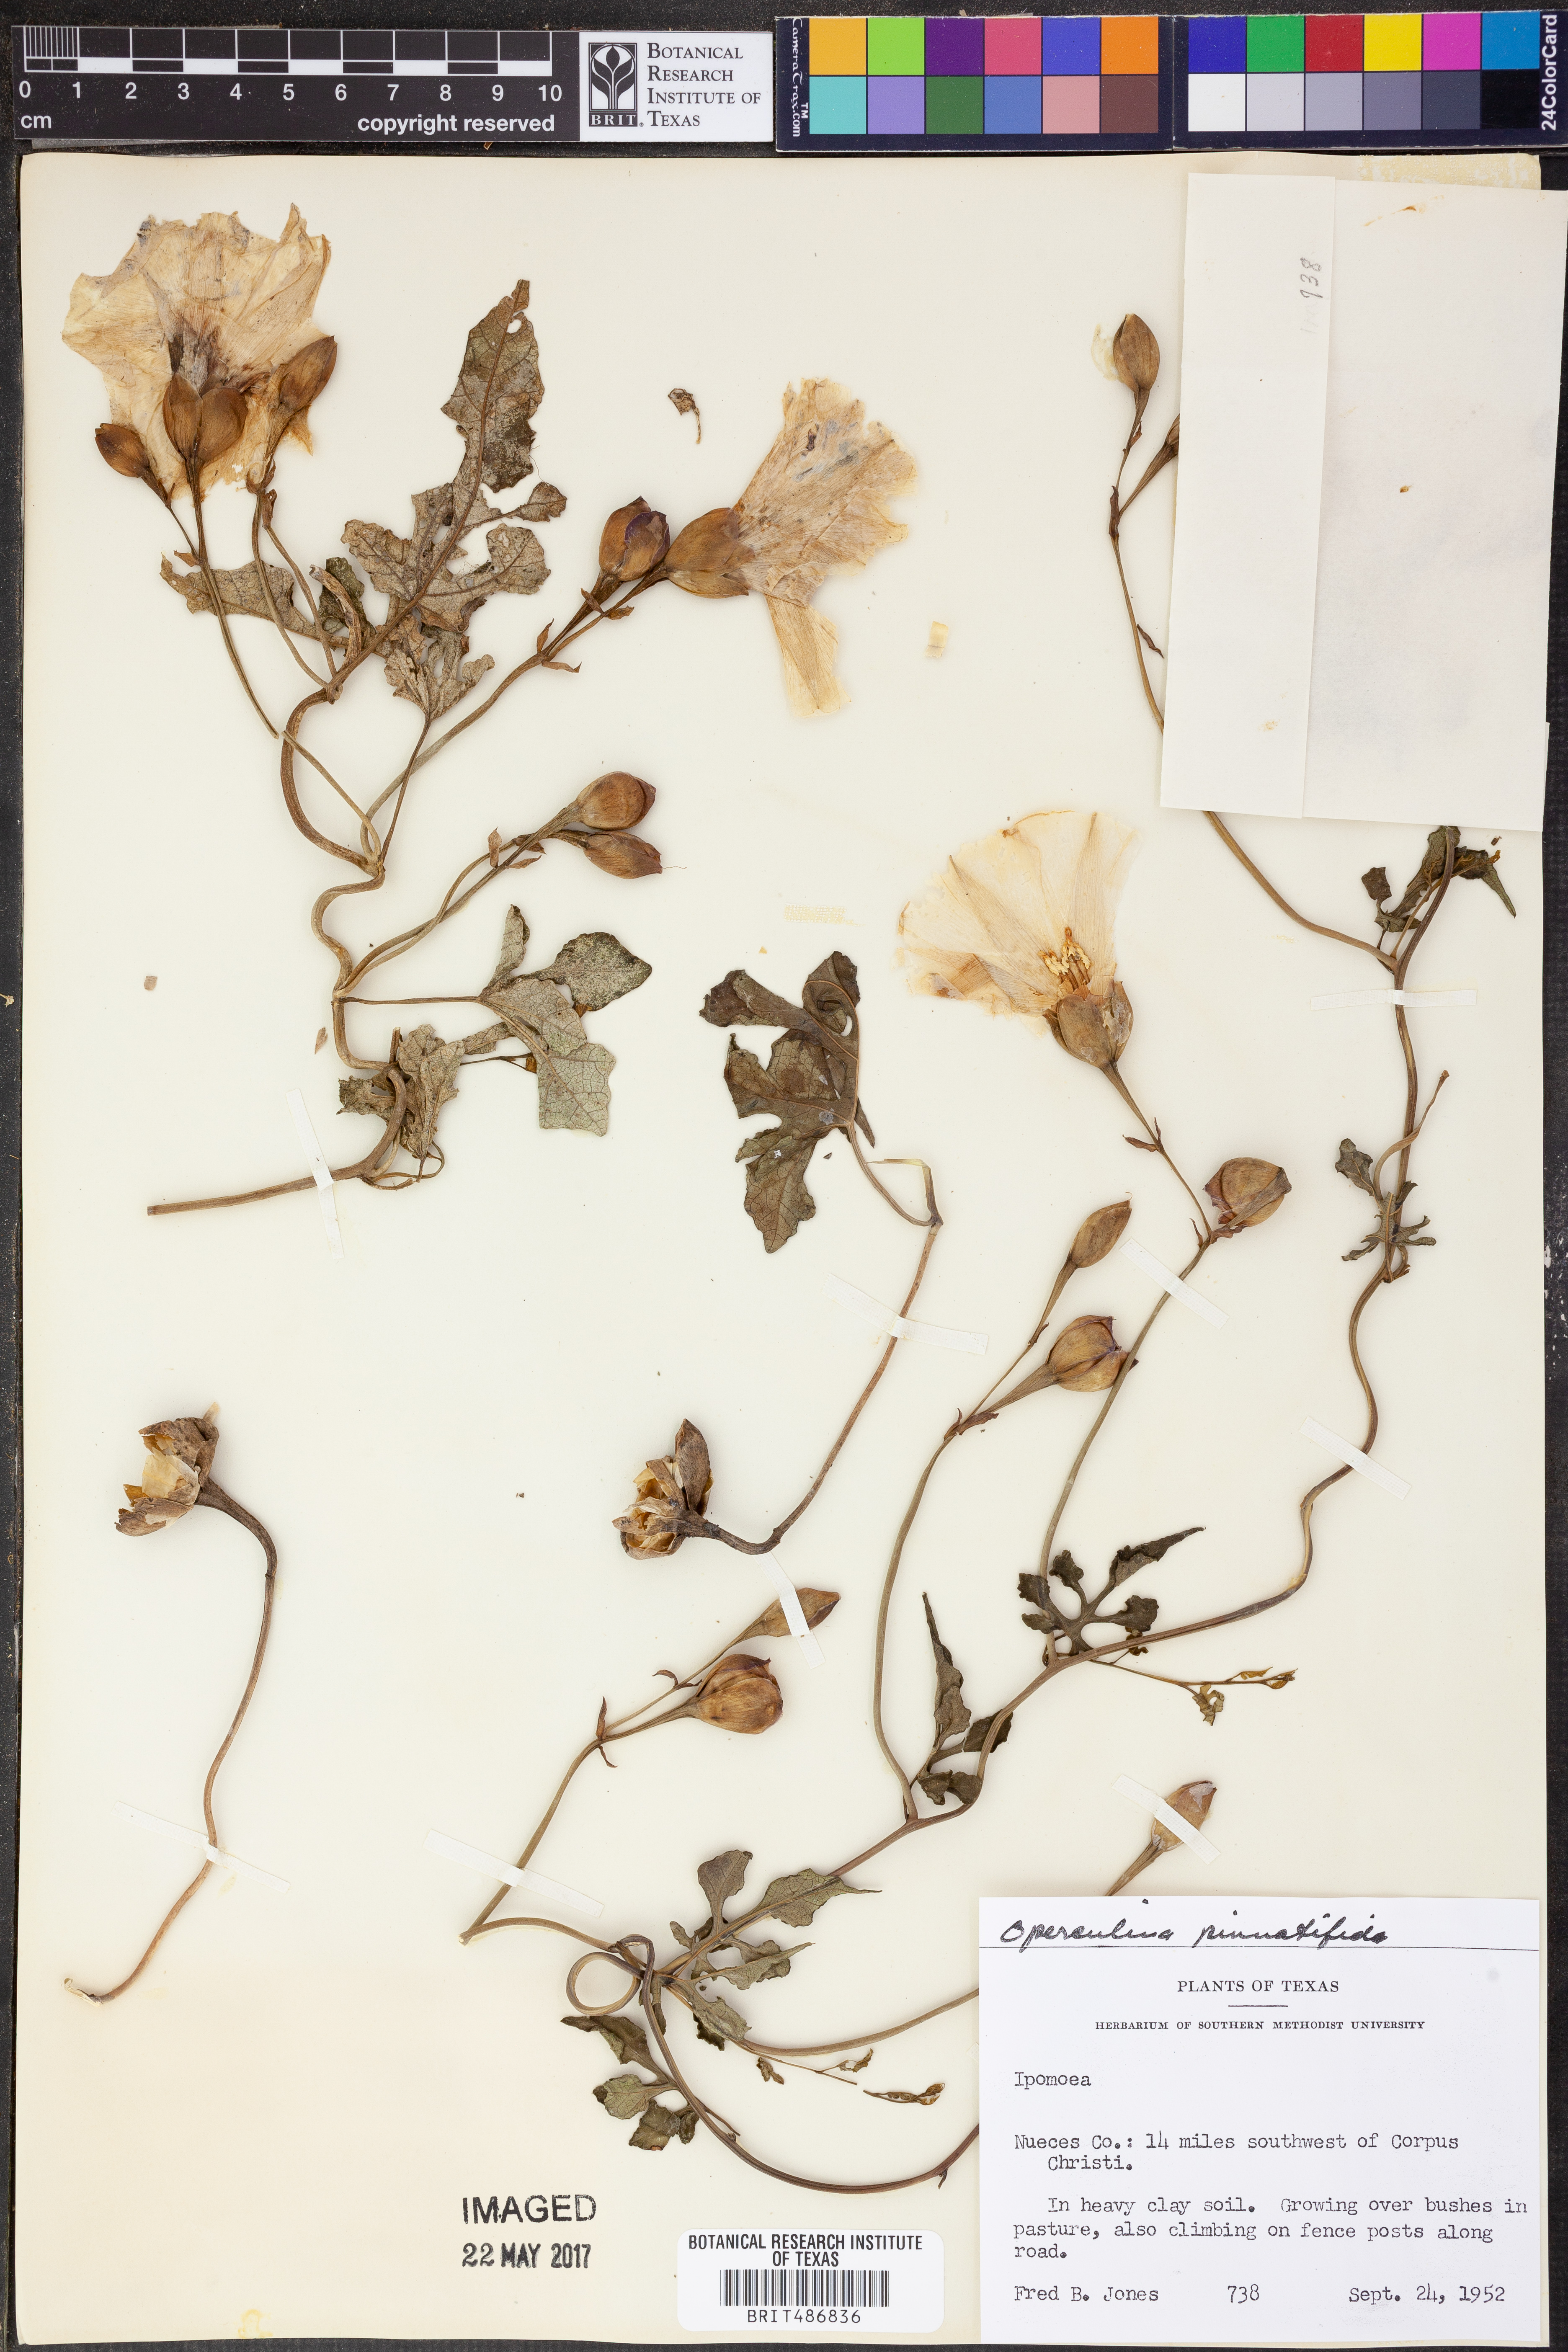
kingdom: Plantae
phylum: Tracheophyta
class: Magnoliopsida
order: Solanales
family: Convolvulaceae
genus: Operculina
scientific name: Operculina pinnatifida
